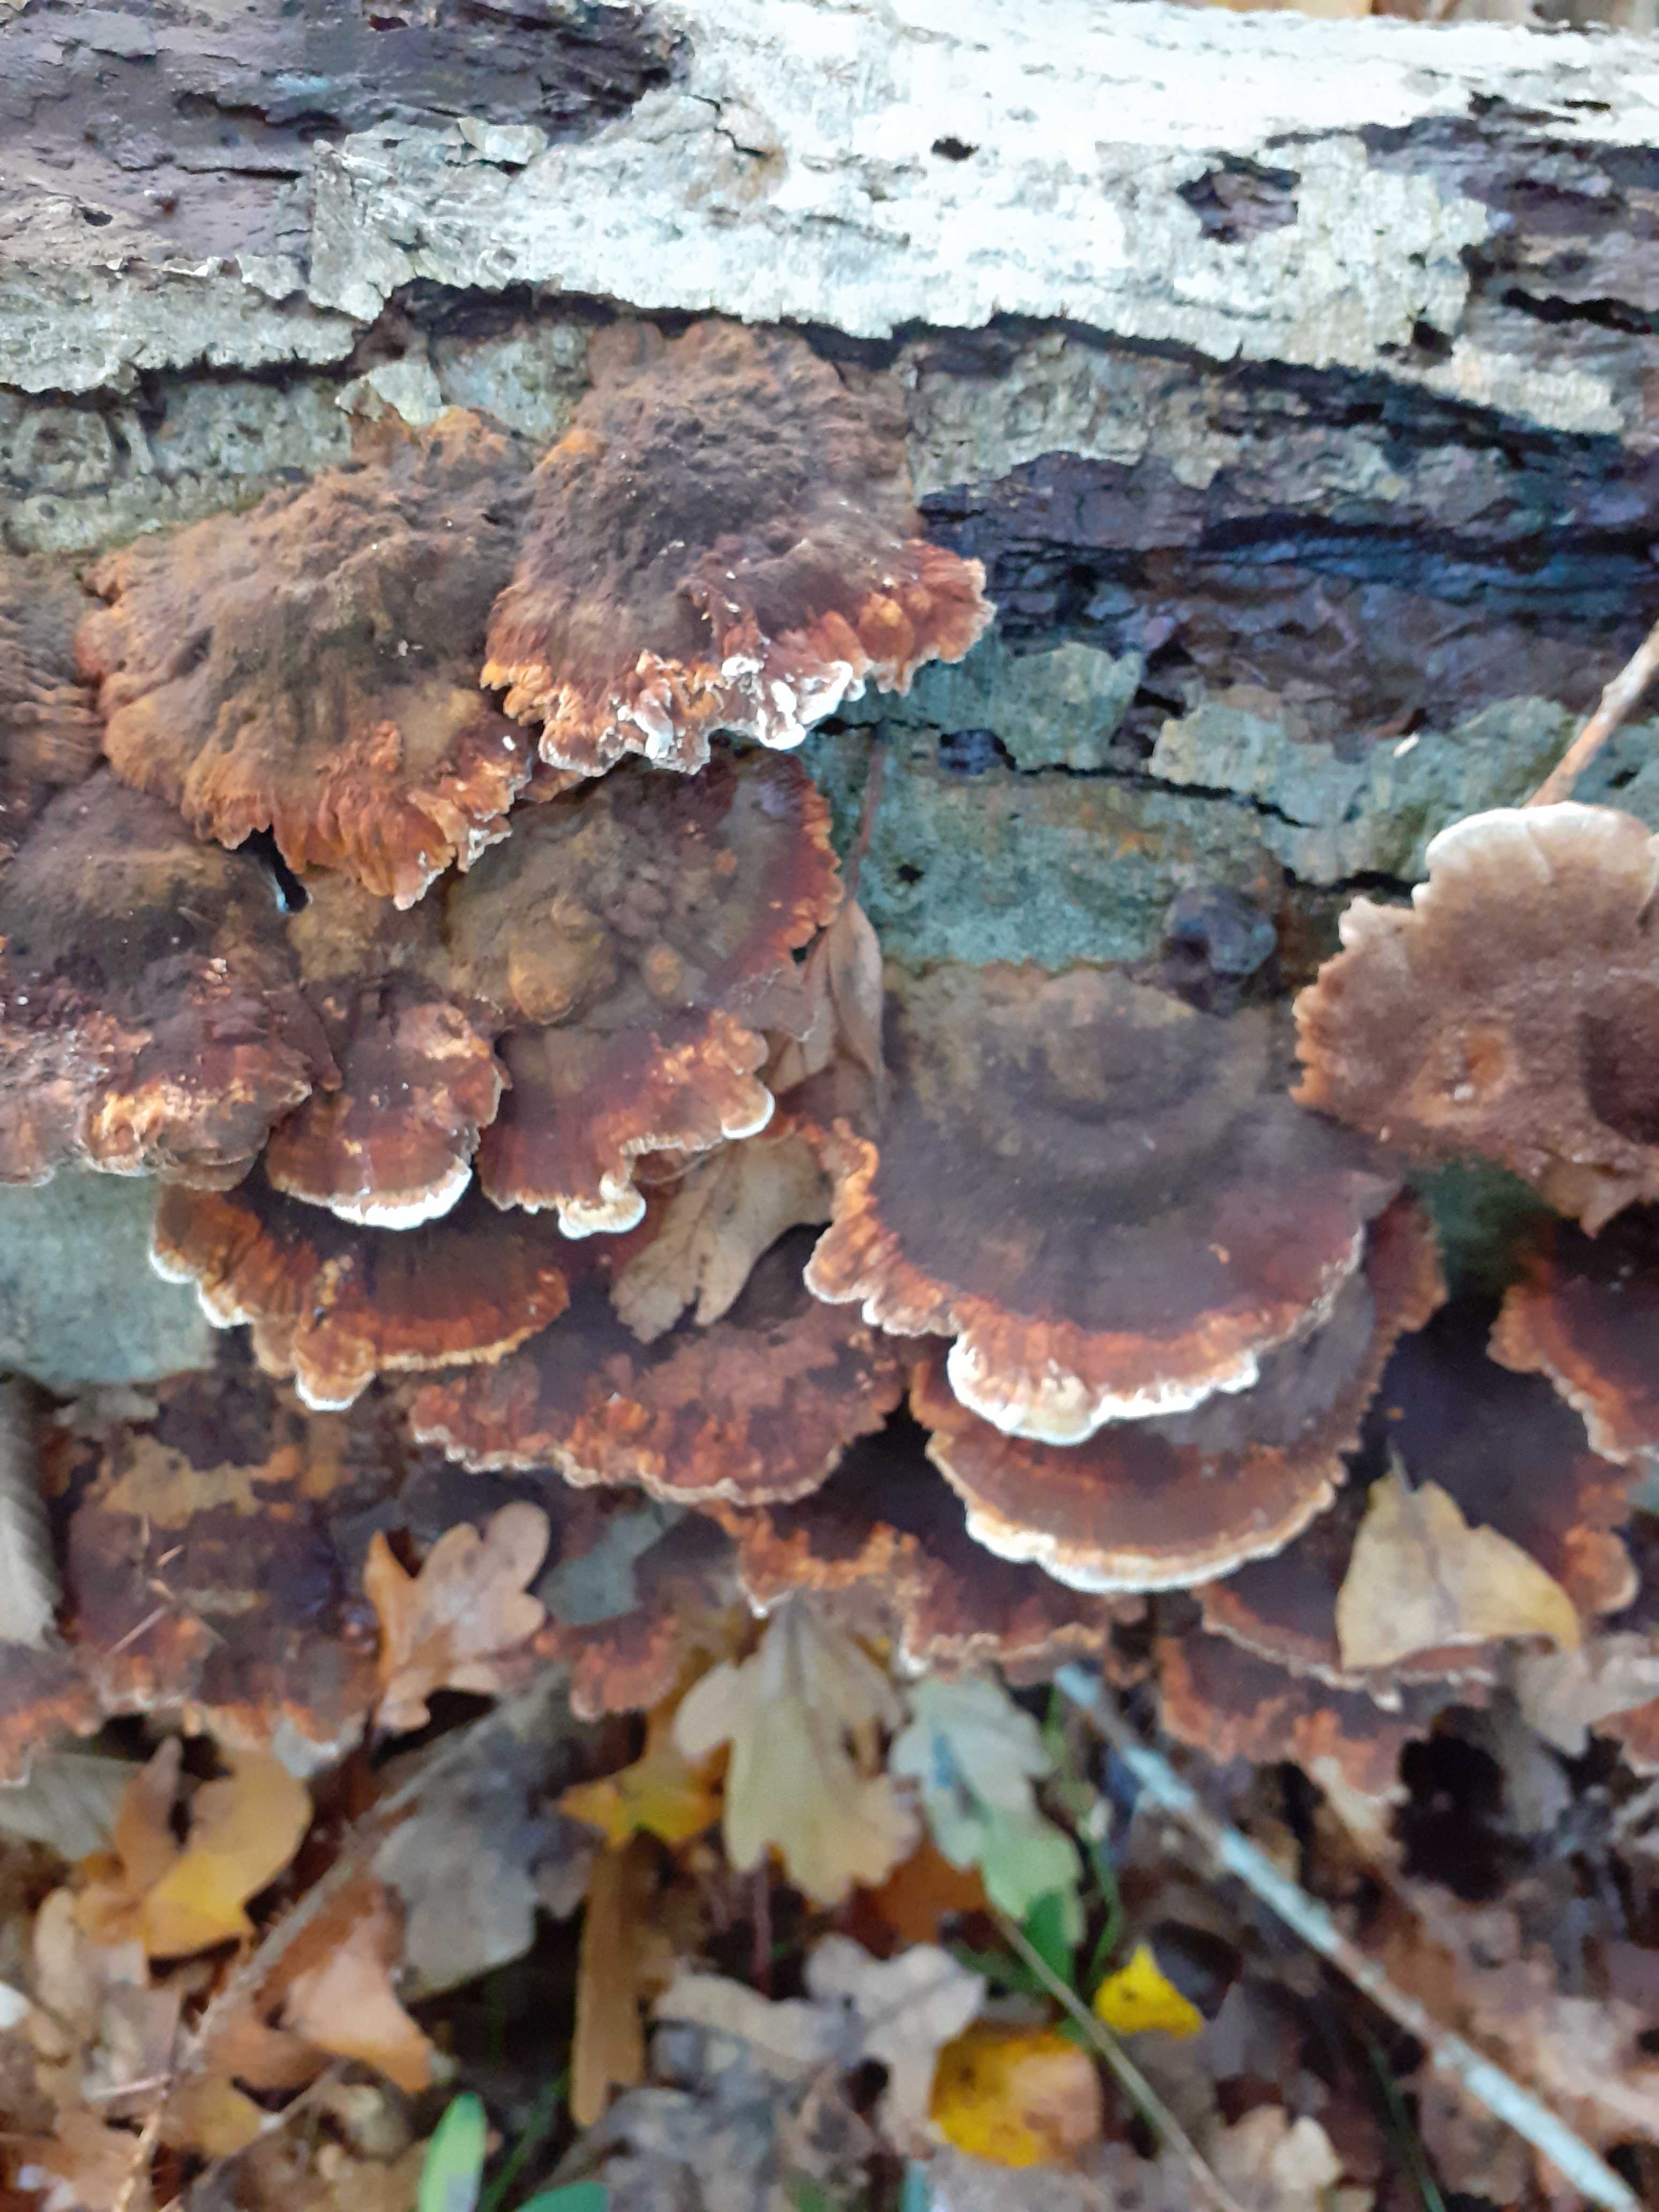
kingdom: Fungi
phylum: Basidiomycota
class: Agaricomycetes
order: Hymenochaetales
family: Hymenochaetaceae
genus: Mensularia
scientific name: Mensularia nodulosa
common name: bøge-spejlporesvamp
